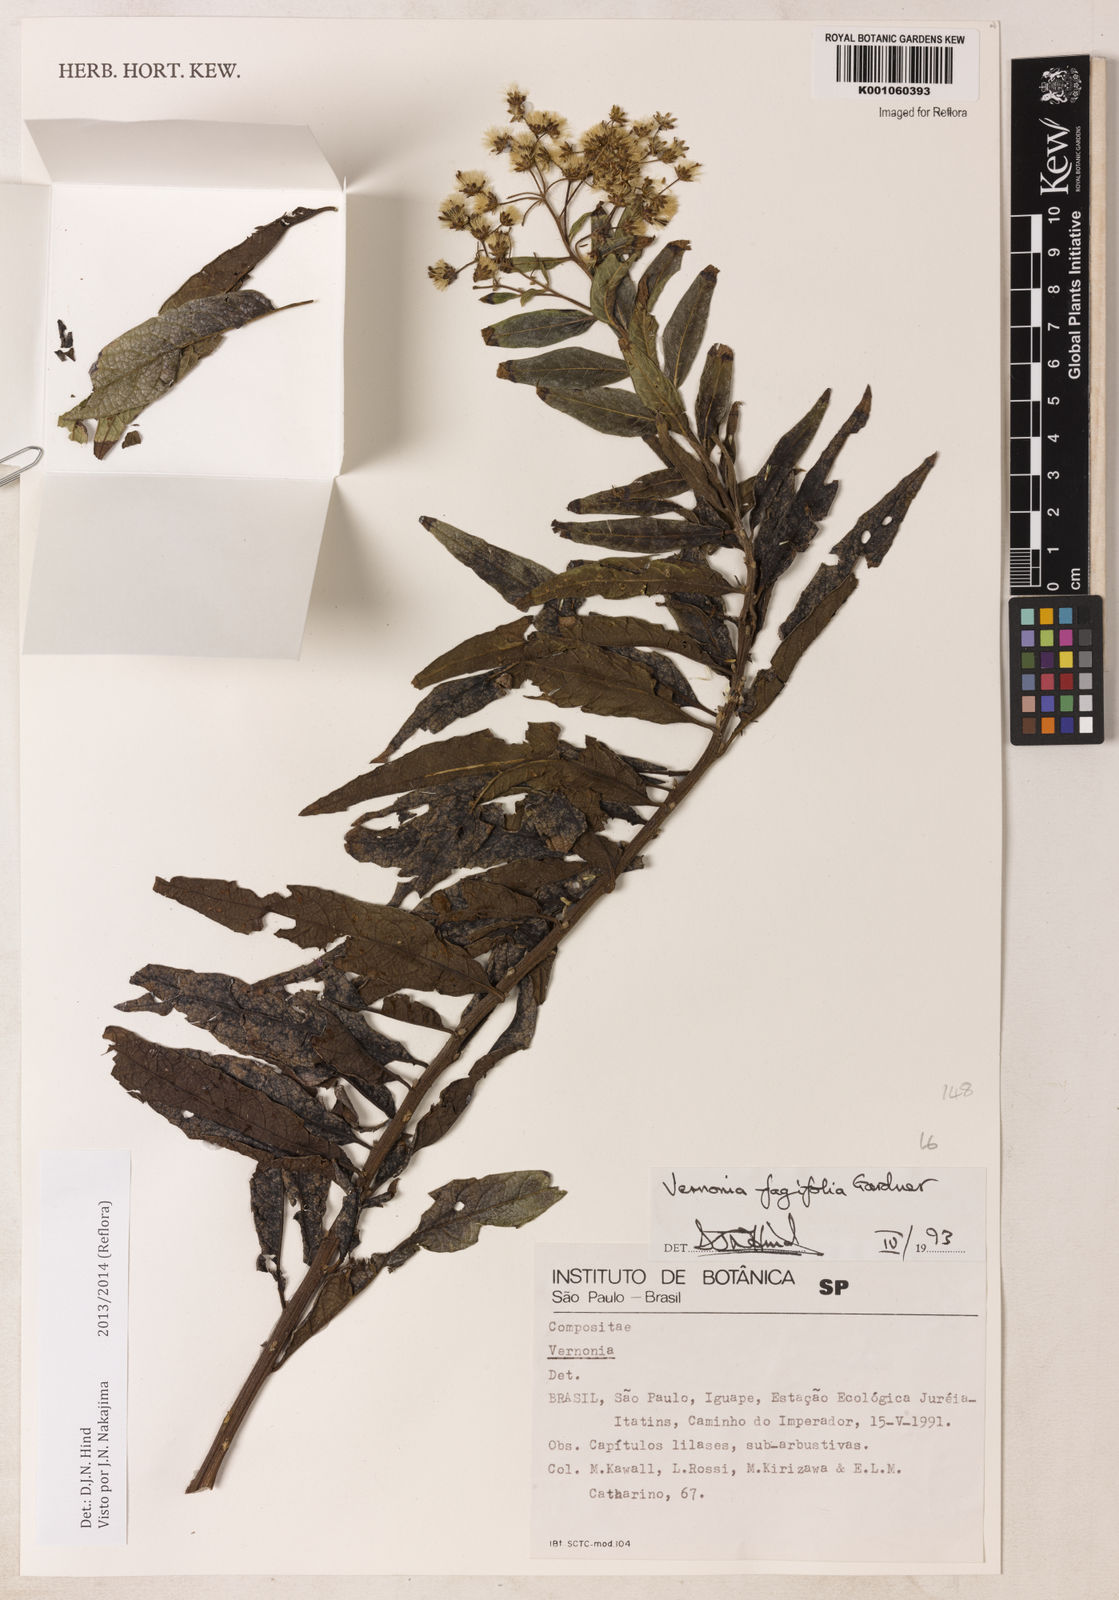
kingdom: Plantae
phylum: Tracheophyta
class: Magnoliopsida
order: Asterales
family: Asteraceae
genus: Vernonanthura
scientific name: Vernonanthura fagifolia
